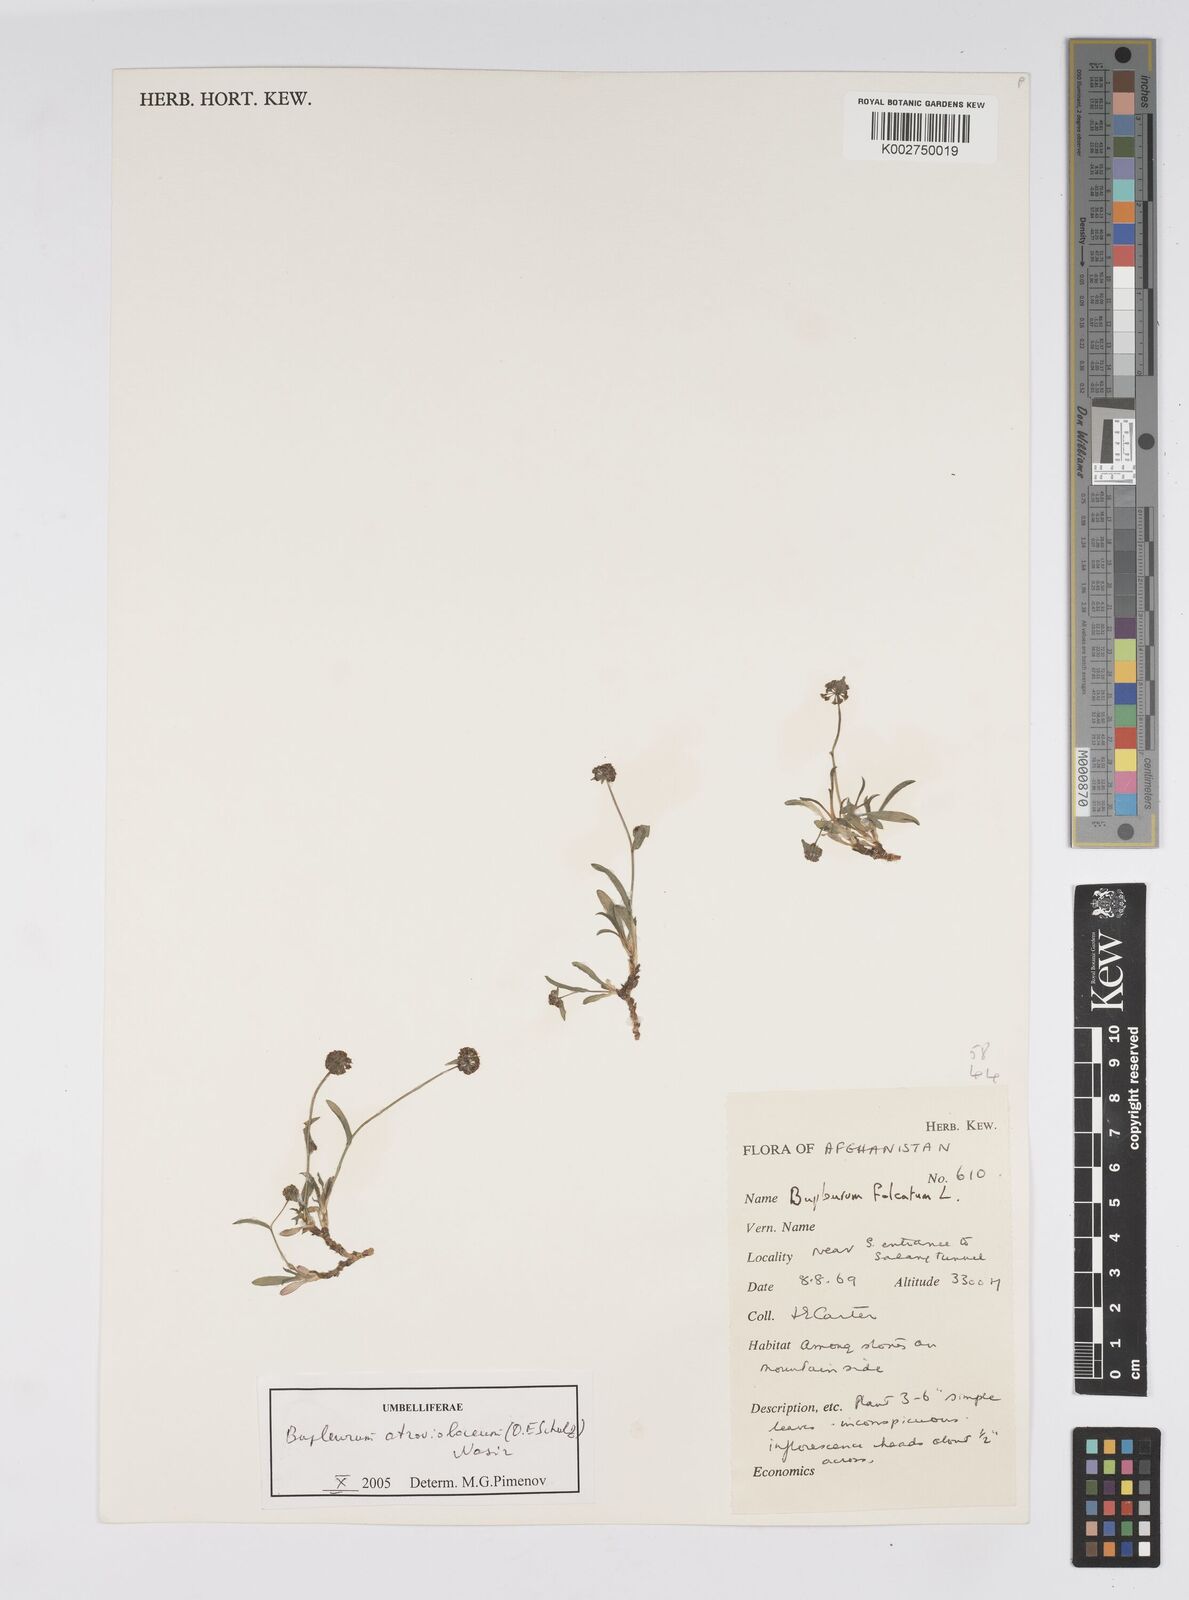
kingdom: Plantae
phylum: Tracheophyta
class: Magnoliopsida
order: Apiales
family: Apiaceae
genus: Bupleurum
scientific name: Bupleurum rupestre
